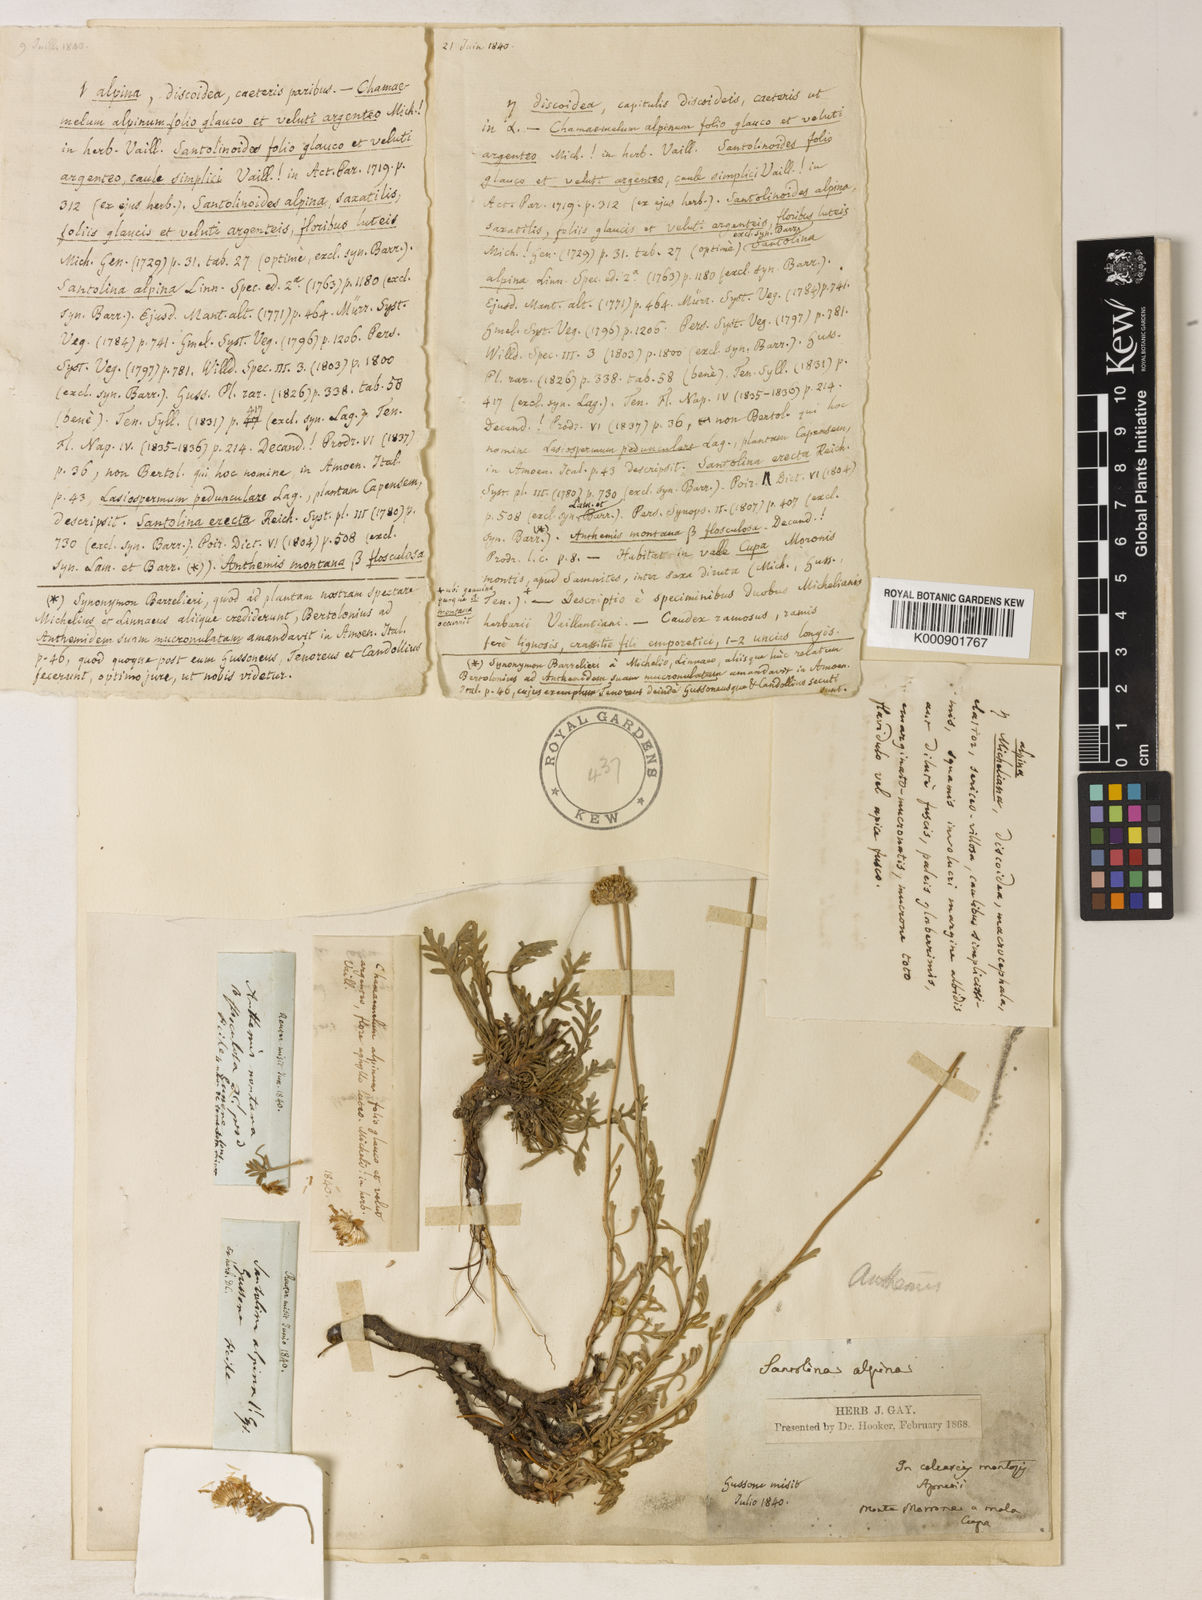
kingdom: Plantae
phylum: Tracheophyta
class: Magnoliopsida
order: Asterales
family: Asteraceae
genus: Anthemis
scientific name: Anthemis cretica
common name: Mountain dog-daisy
